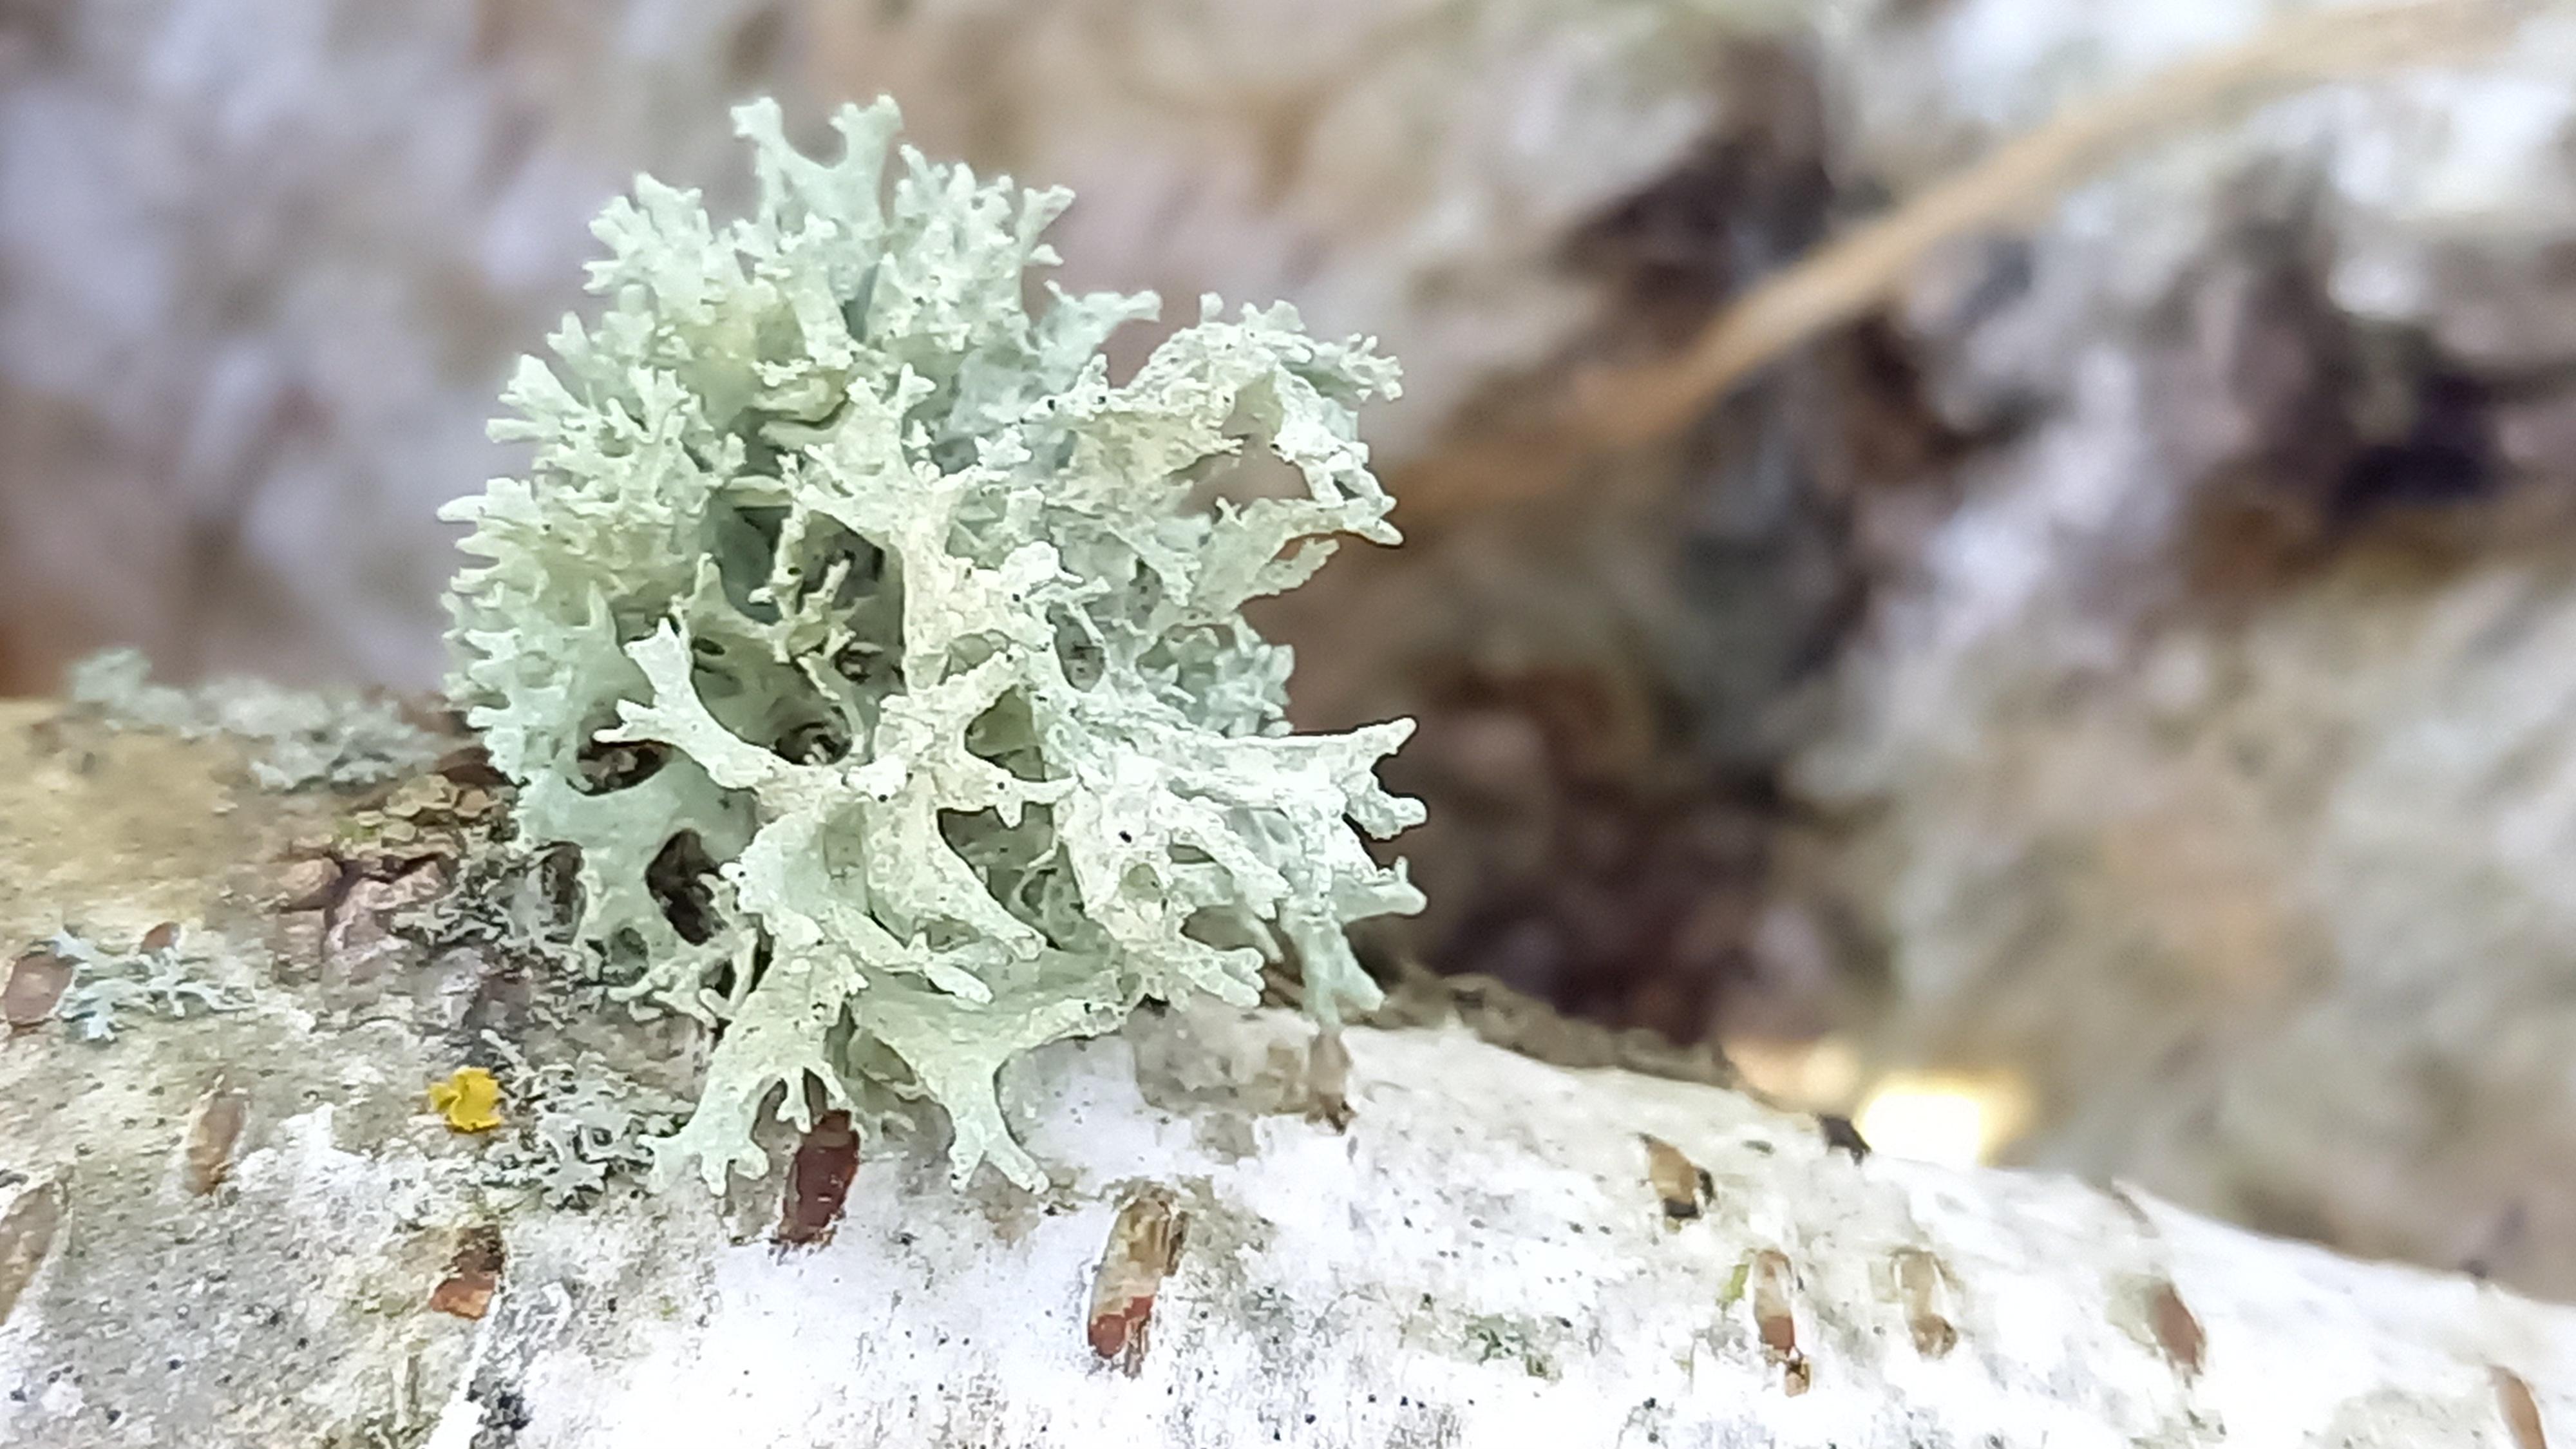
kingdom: Fungi
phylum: Ascomycota
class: Lecanoromycetes
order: Lecanorales
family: Parmeliaceae
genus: Evernia
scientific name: Evernia prunastri
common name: almindelig slåenlav
